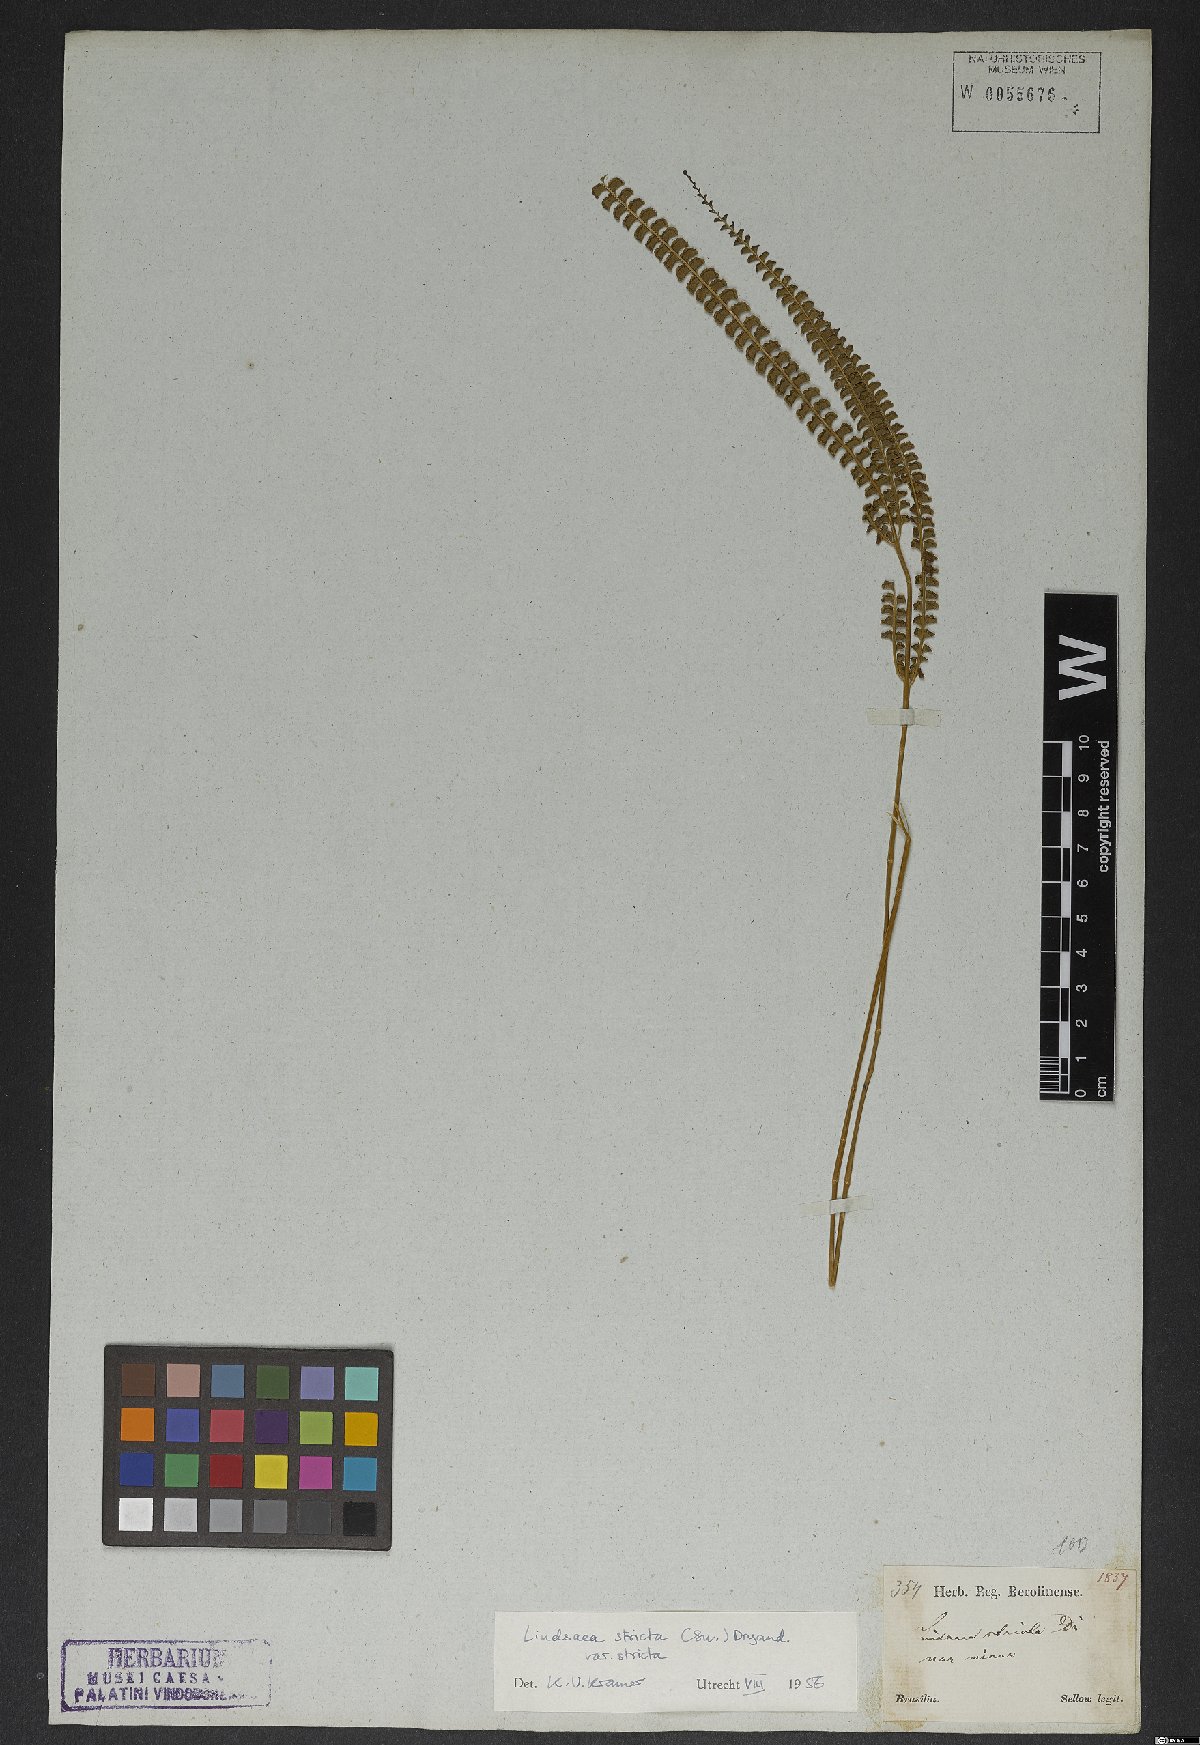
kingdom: Plantae
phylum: Tracheophyta
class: Polypodiopsida
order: Polypodiales
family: Lindsaeaceae
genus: Lindsaea
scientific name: Lindsaea stricta
